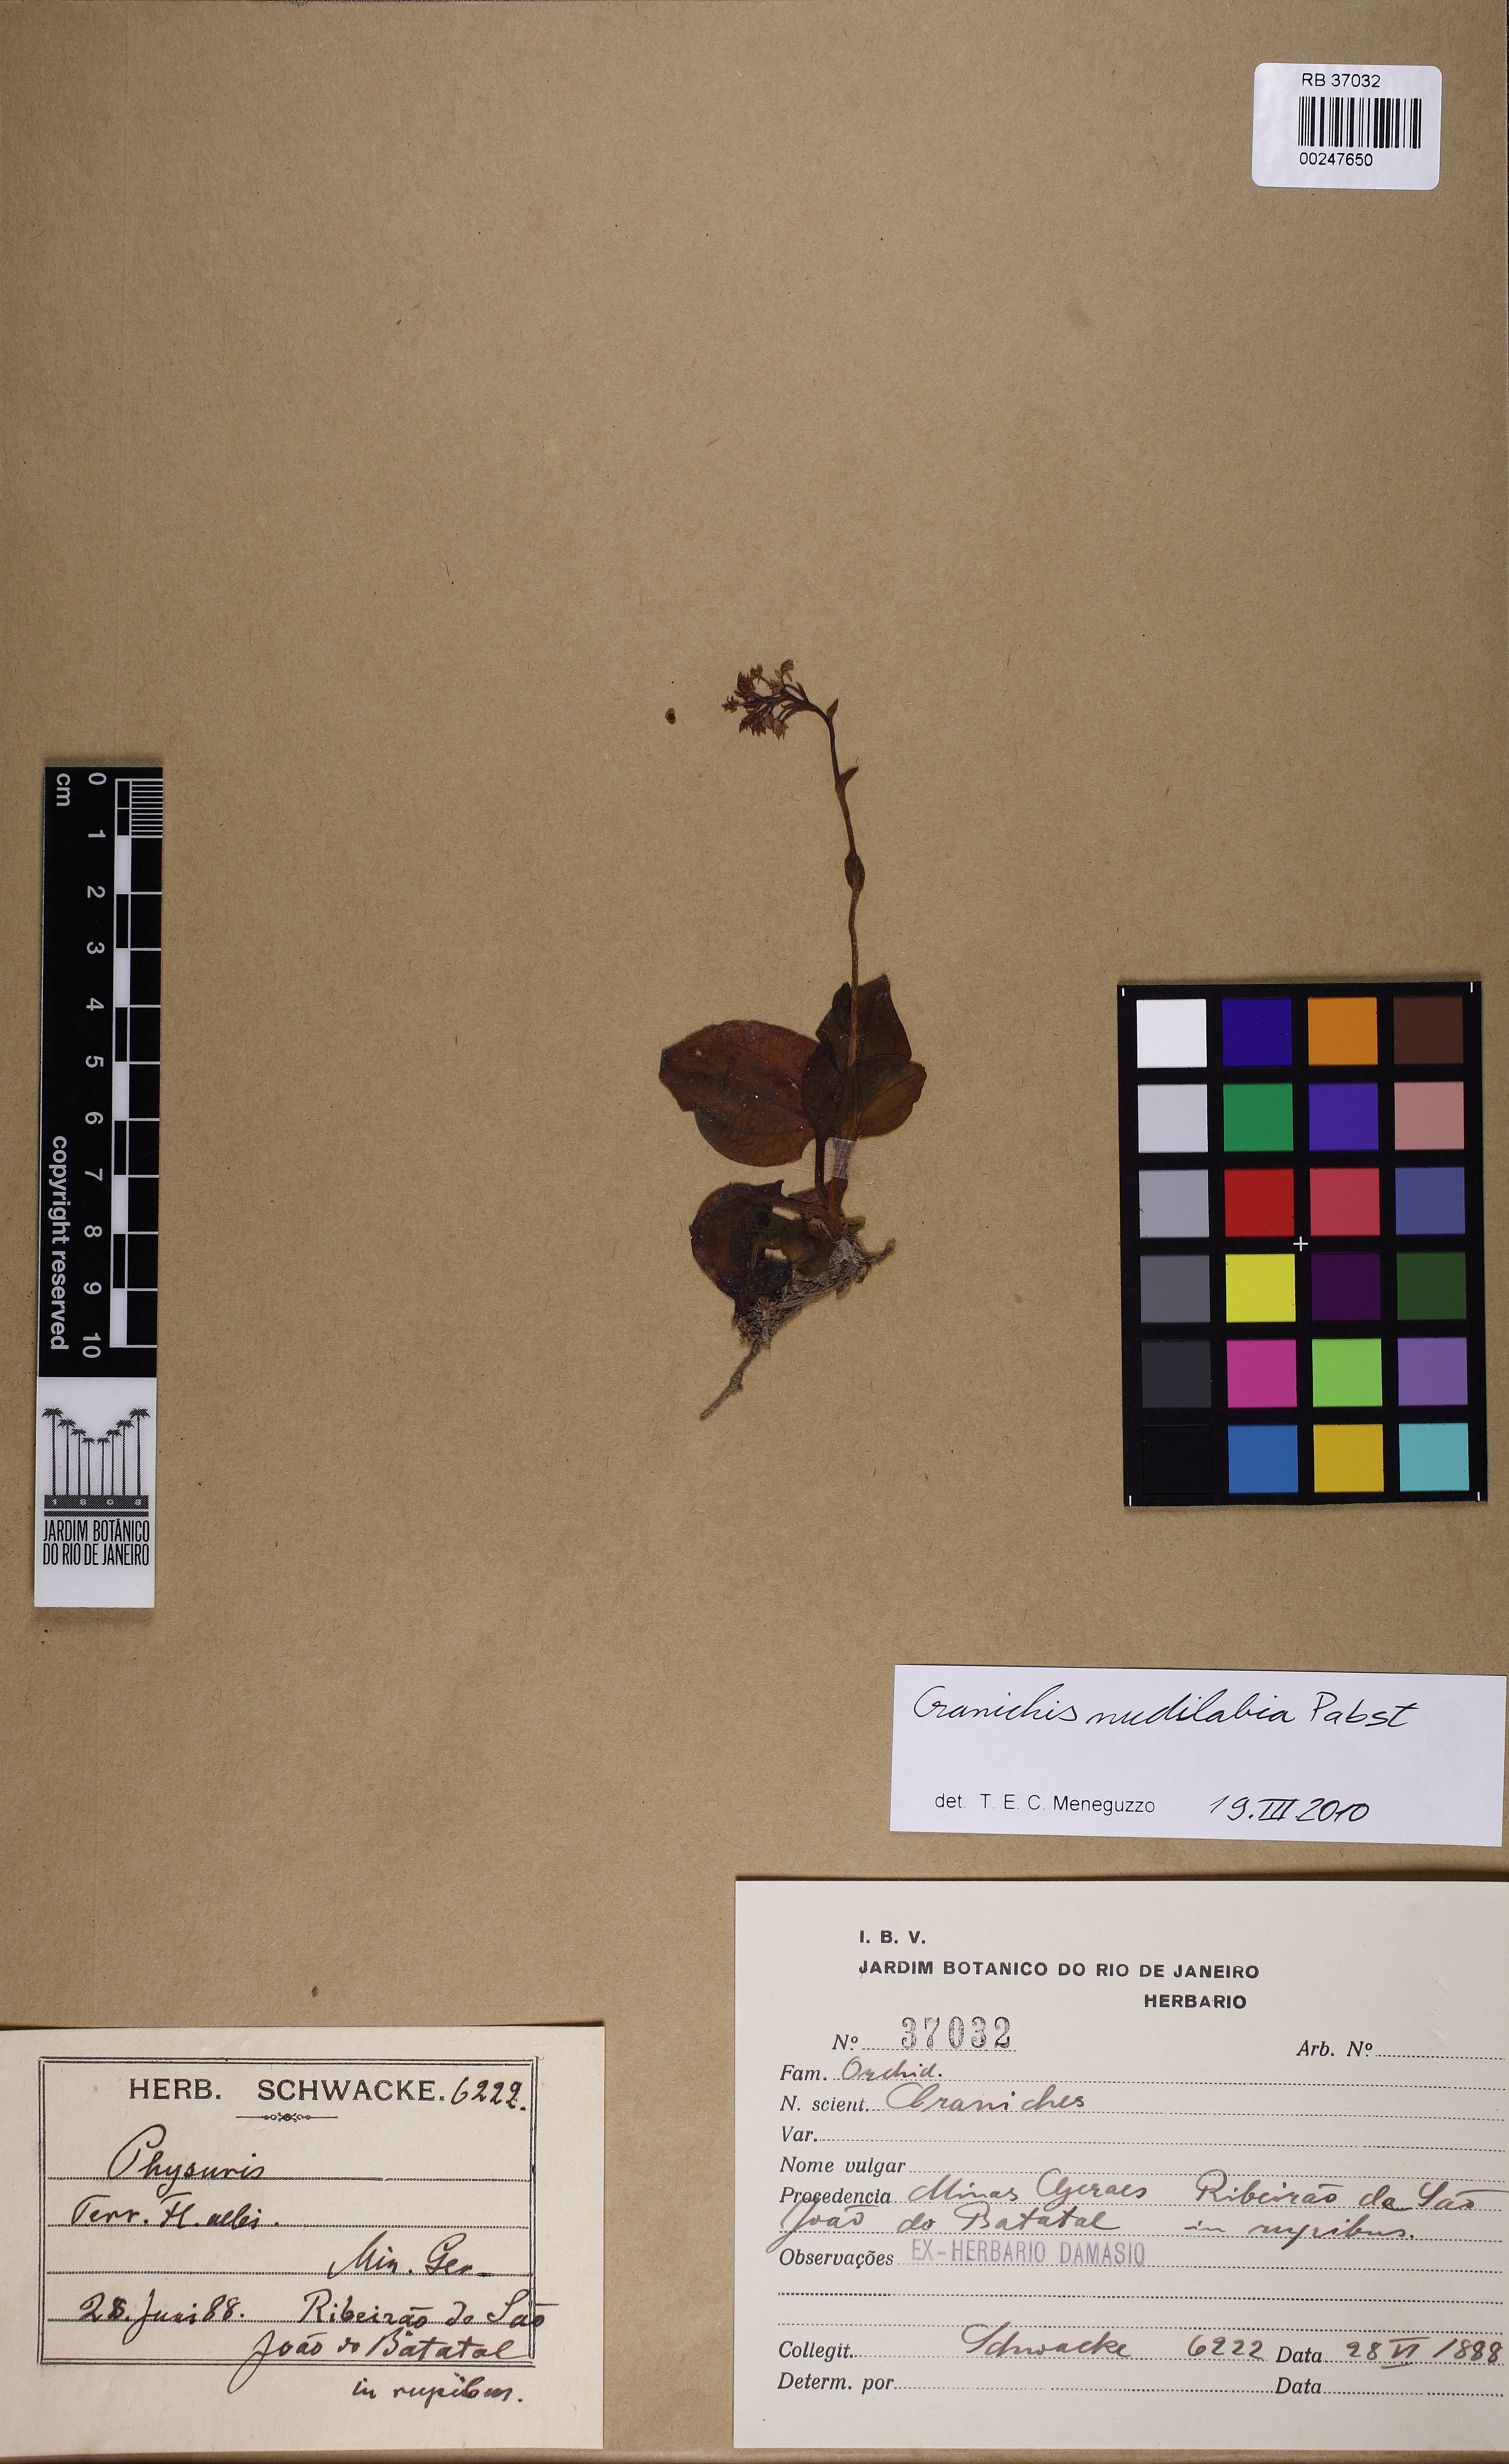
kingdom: Plantae
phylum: Tracheophyta
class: Liliopsida
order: Asparagales
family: Orchidaceae
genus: Cranichis
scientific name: Cranichis nudilabia
